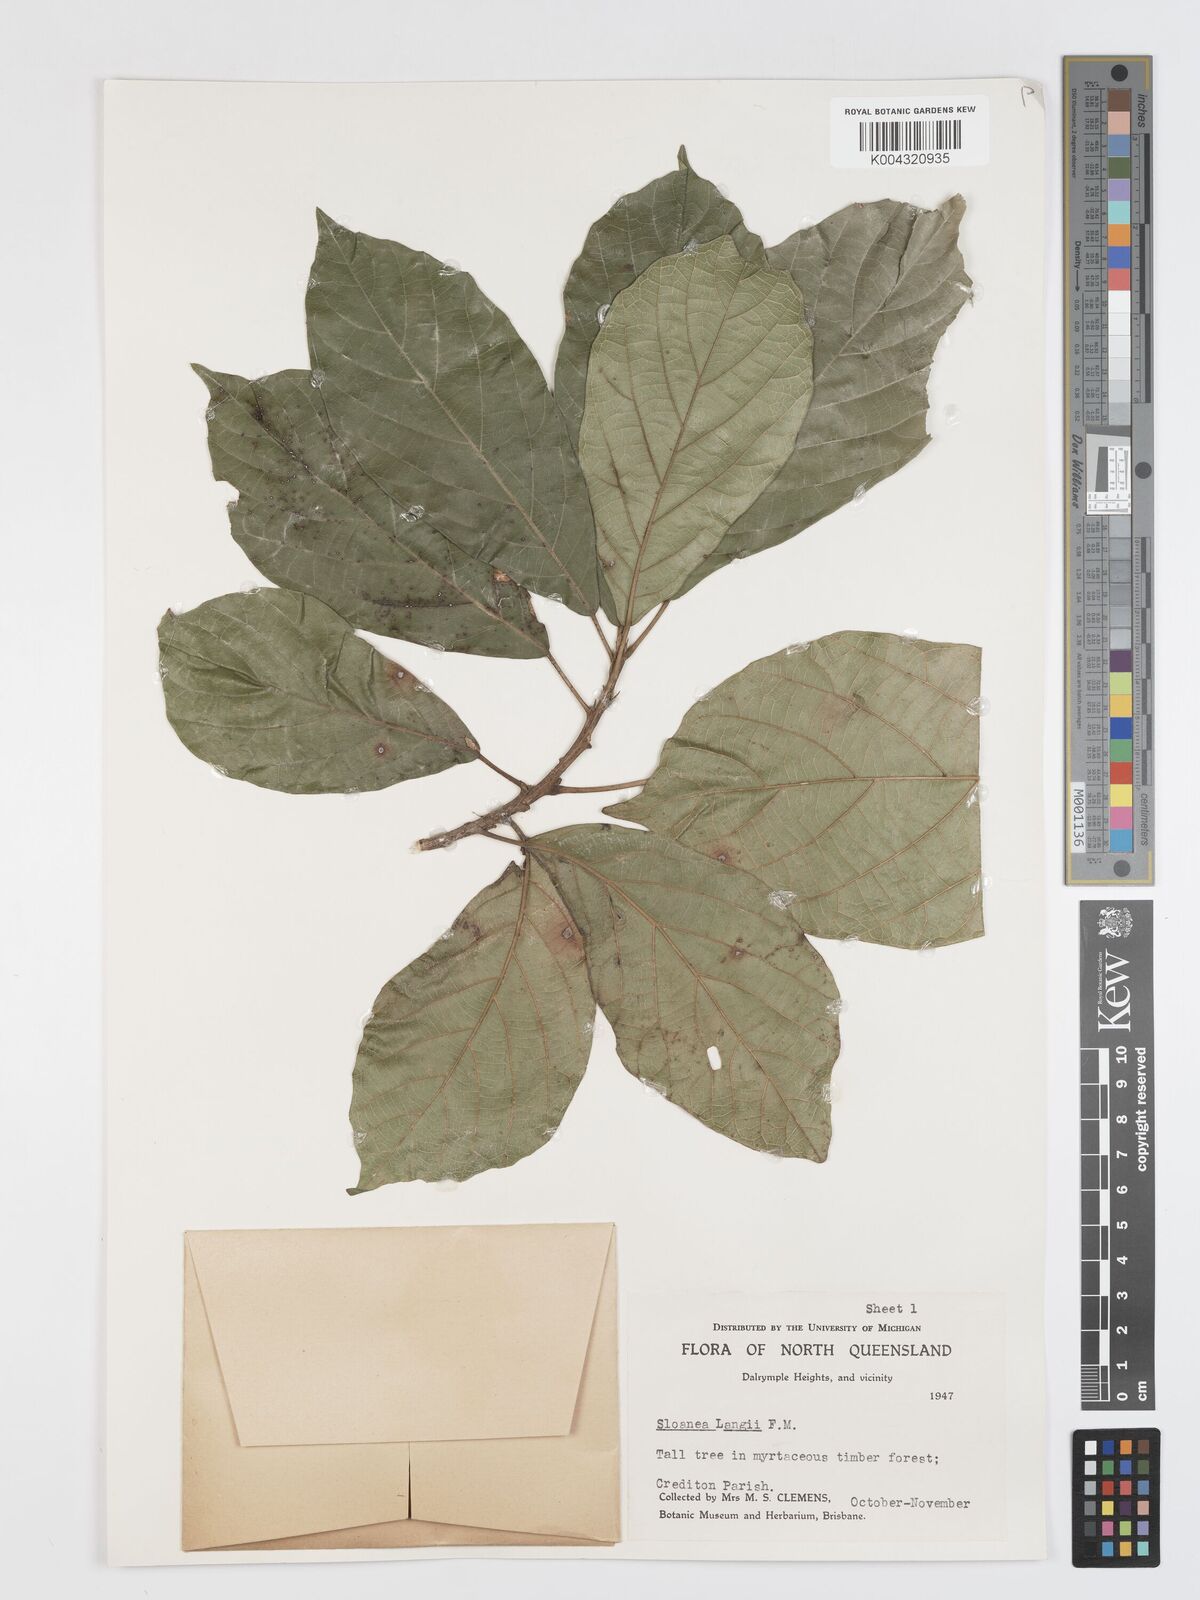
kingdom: Plantae
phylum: Tracheophyta
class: Magnoliopsida
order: Oxalidales
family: Elaeocarpaceae
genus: Sloanea
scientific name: Sloanea langii
